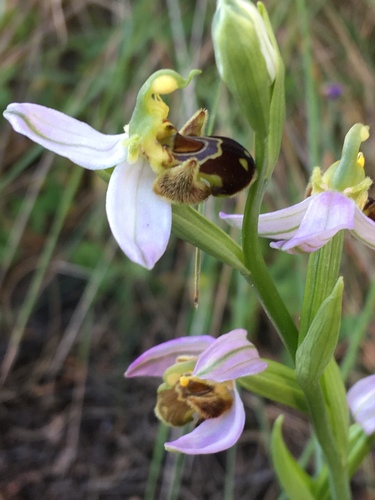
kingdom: Plantae
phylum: Tracheophyta
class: Liliopsida
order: Asparagales
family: Orchidaceae
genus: Ophrys
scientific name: Ophrys apifera
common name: Bee orchid
